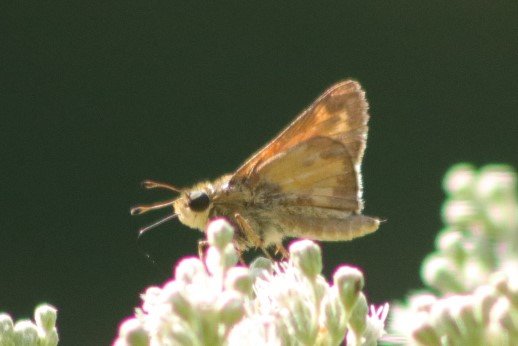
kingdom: Animalia
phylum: Arthropoda
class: Insecta
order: Lepidoptera
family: Hesperiidae
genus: Atalopedes
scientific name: Atalopedes campestris
